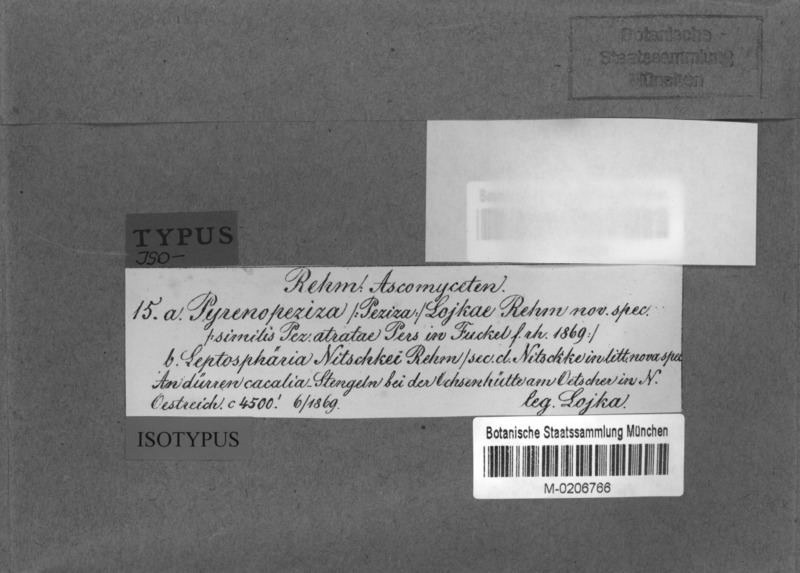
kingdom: Fungi
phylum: Ascomycota
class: Dothideomycetes
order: Pleosporales
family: Leptosphaeriaceae
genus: Paraleptosphaeria
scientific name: Paraleptosphaeria nitschkei
